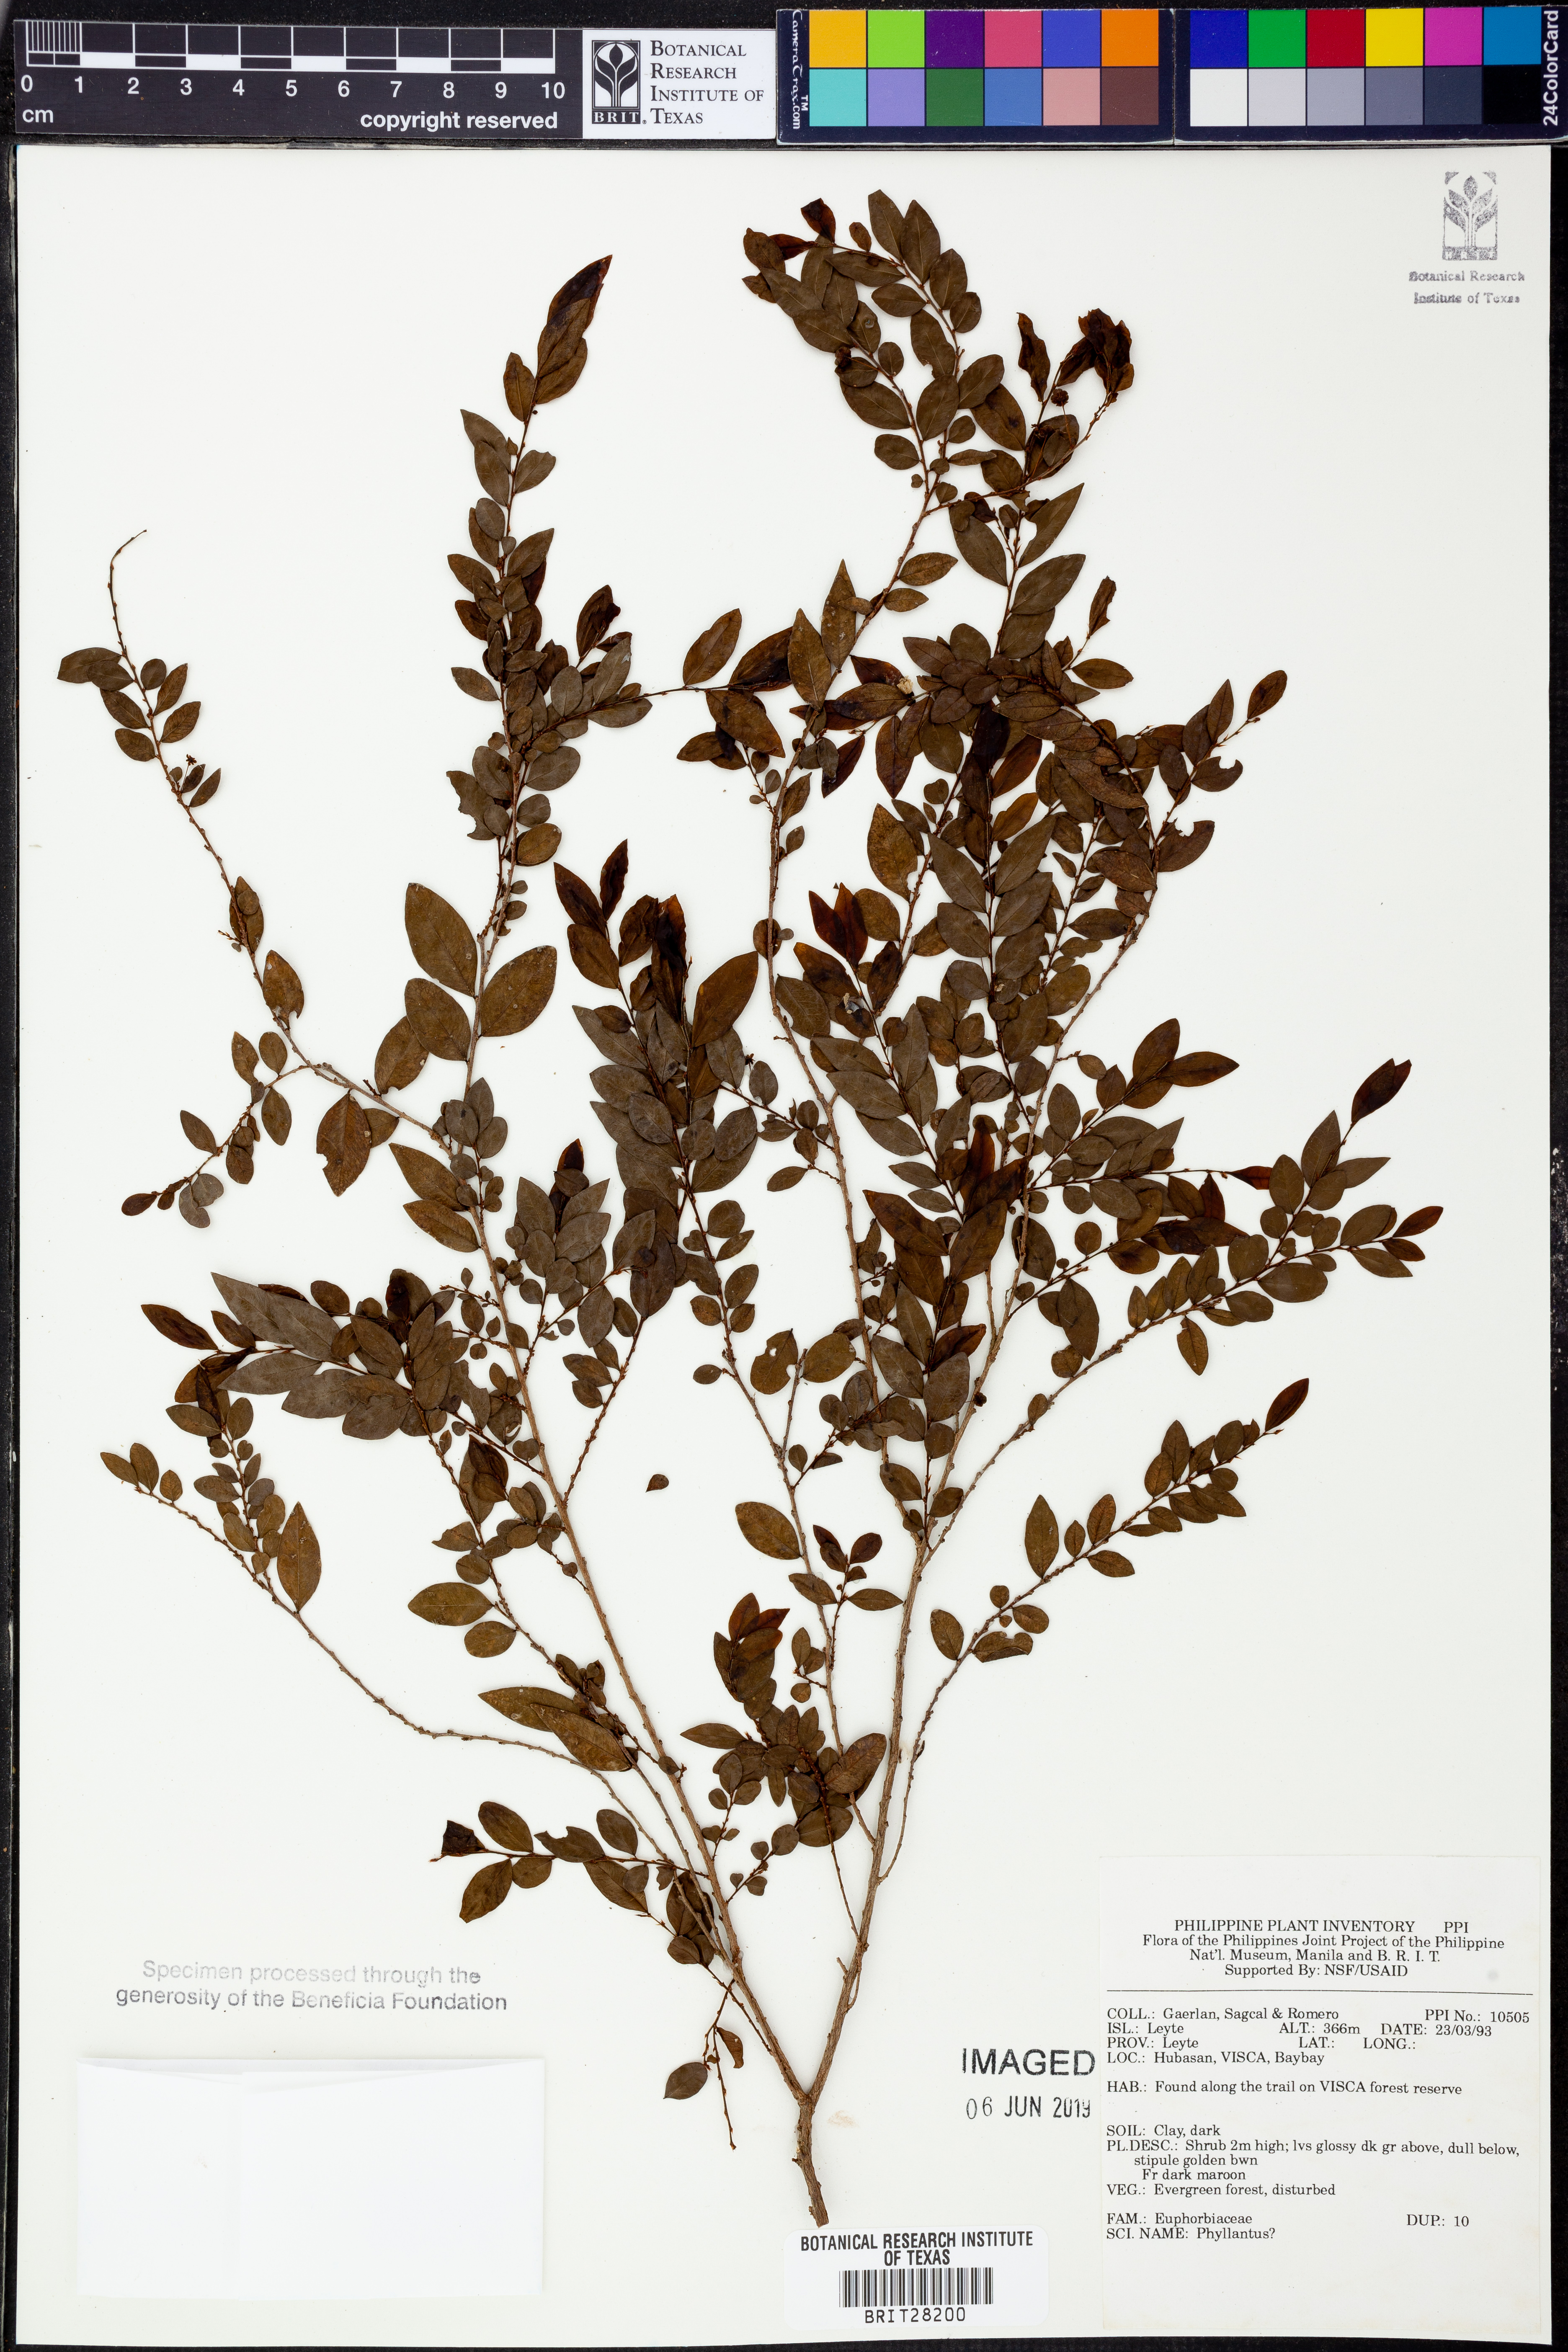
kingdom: Plantae
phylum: Tracheophyta
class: Magnoliopsida
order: Malpighiales
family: Phyllanthaceae
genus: Phyllanthus
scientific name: Phyllanthus
